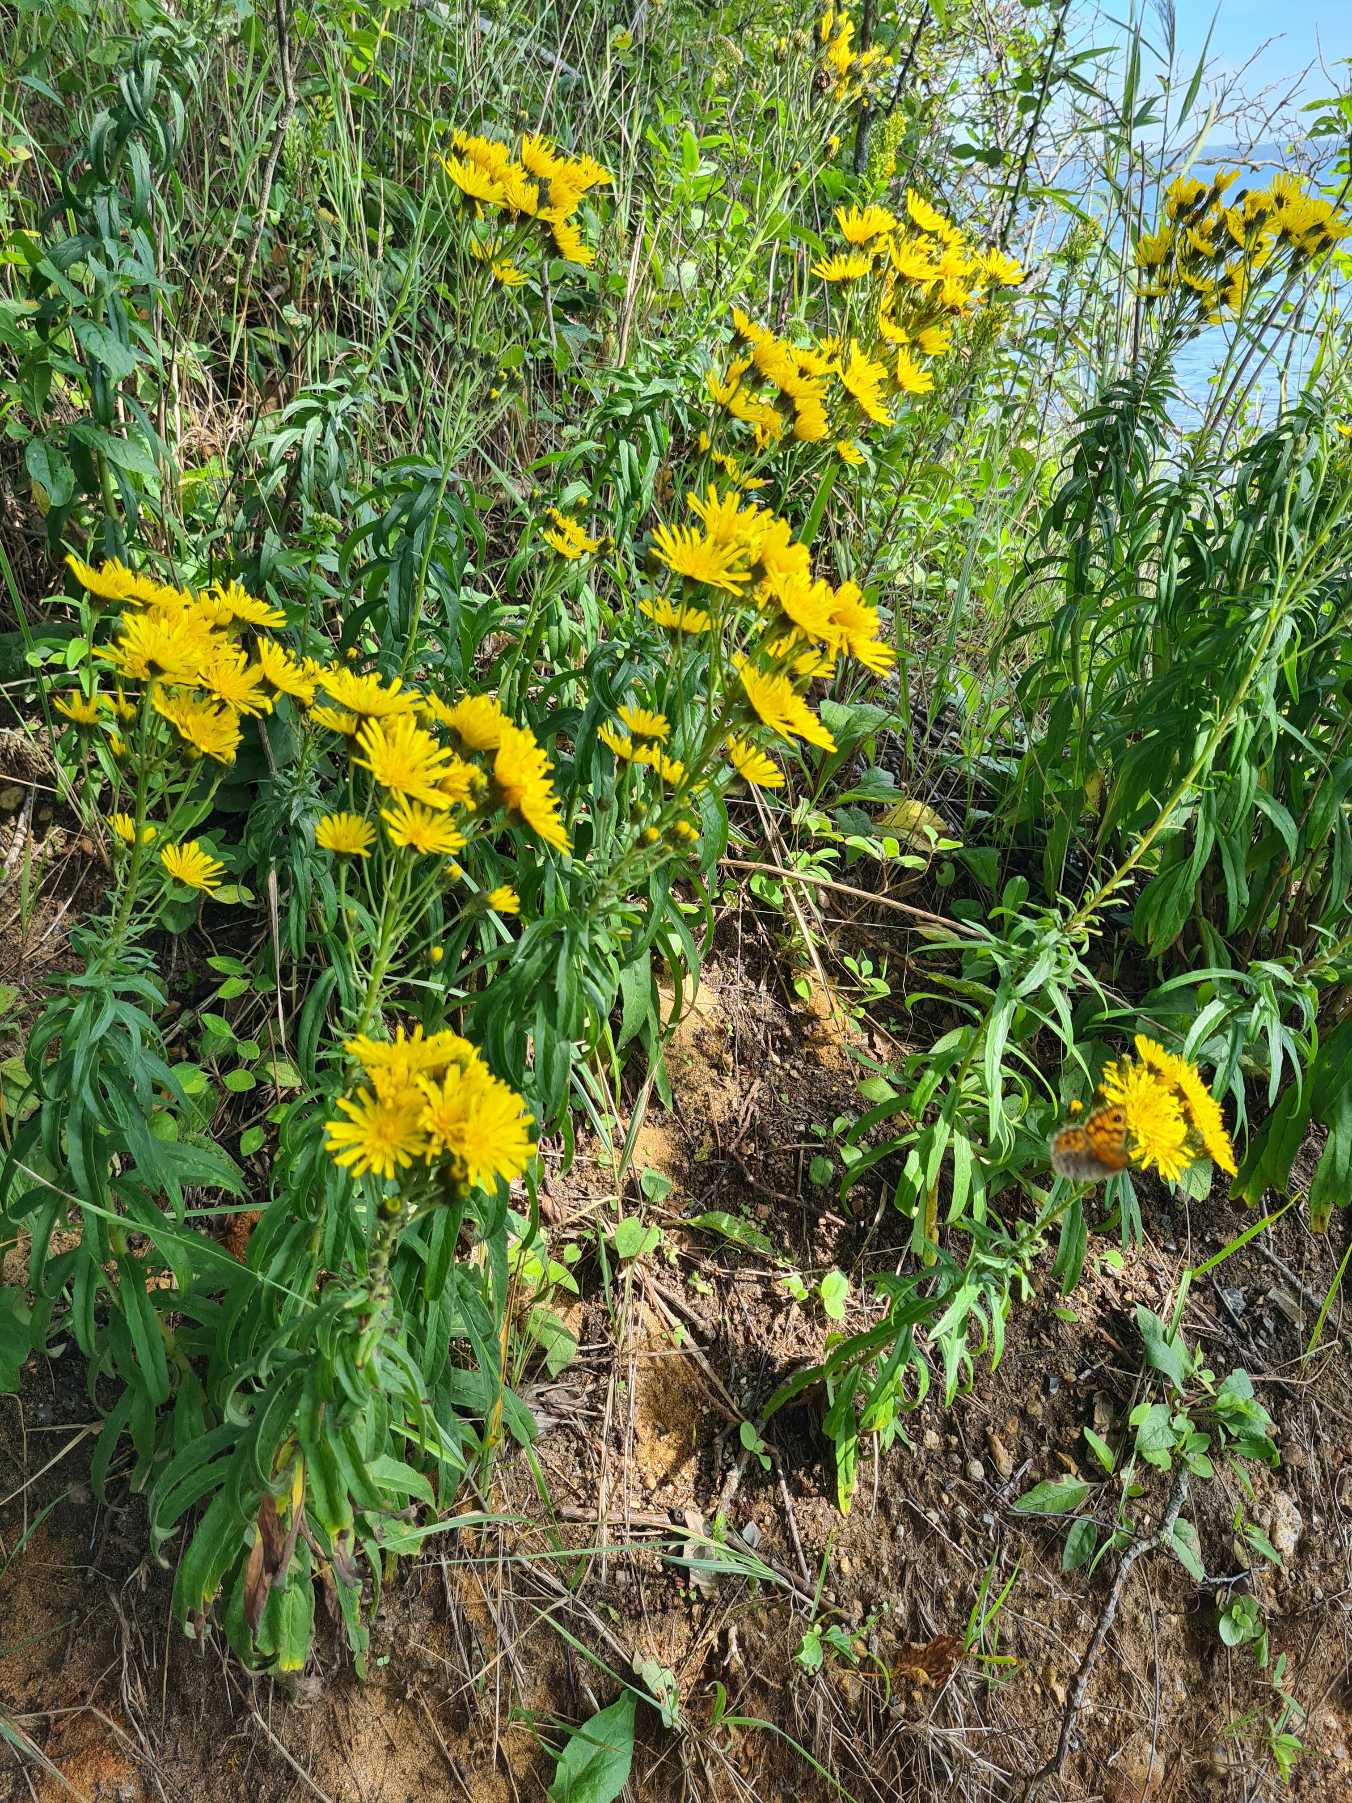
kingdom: Plantae
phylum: Tracheophyta
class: Magnoliopsida
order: Asterales
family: Asteraceae
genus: Hieracium
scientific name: Hieracium
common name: Høgeurt (Hieracium-slægten)
